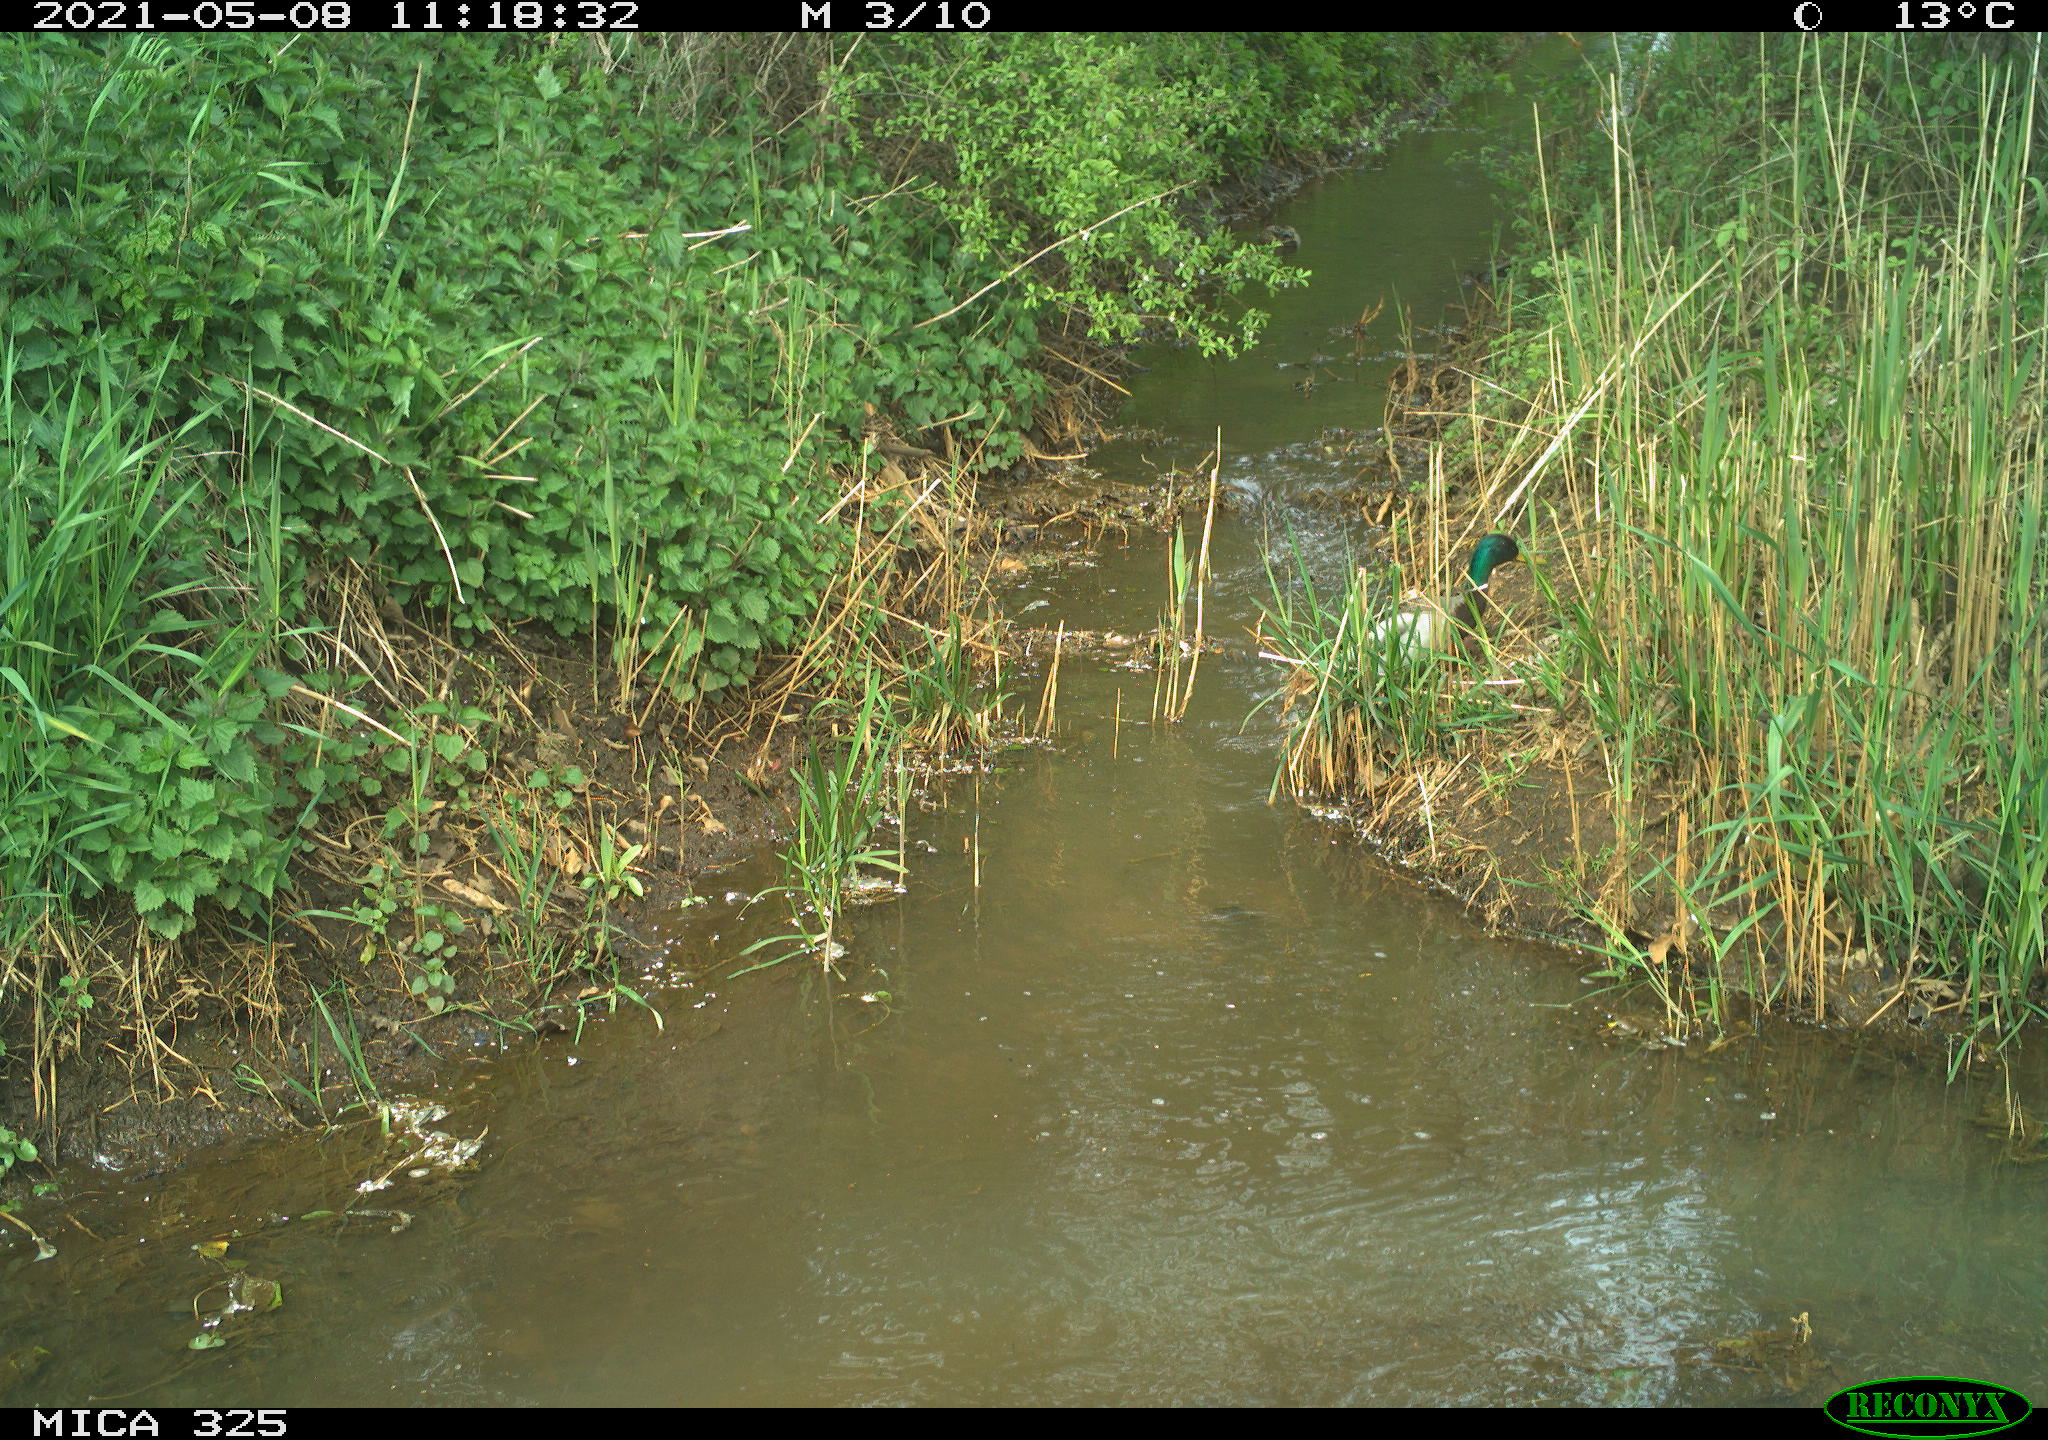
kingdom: Animalia
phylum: Chordata
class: Aves
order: Anseriformes
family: Anatidae
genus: Anas
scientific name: Anas platyrhynchos
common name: Mallard
